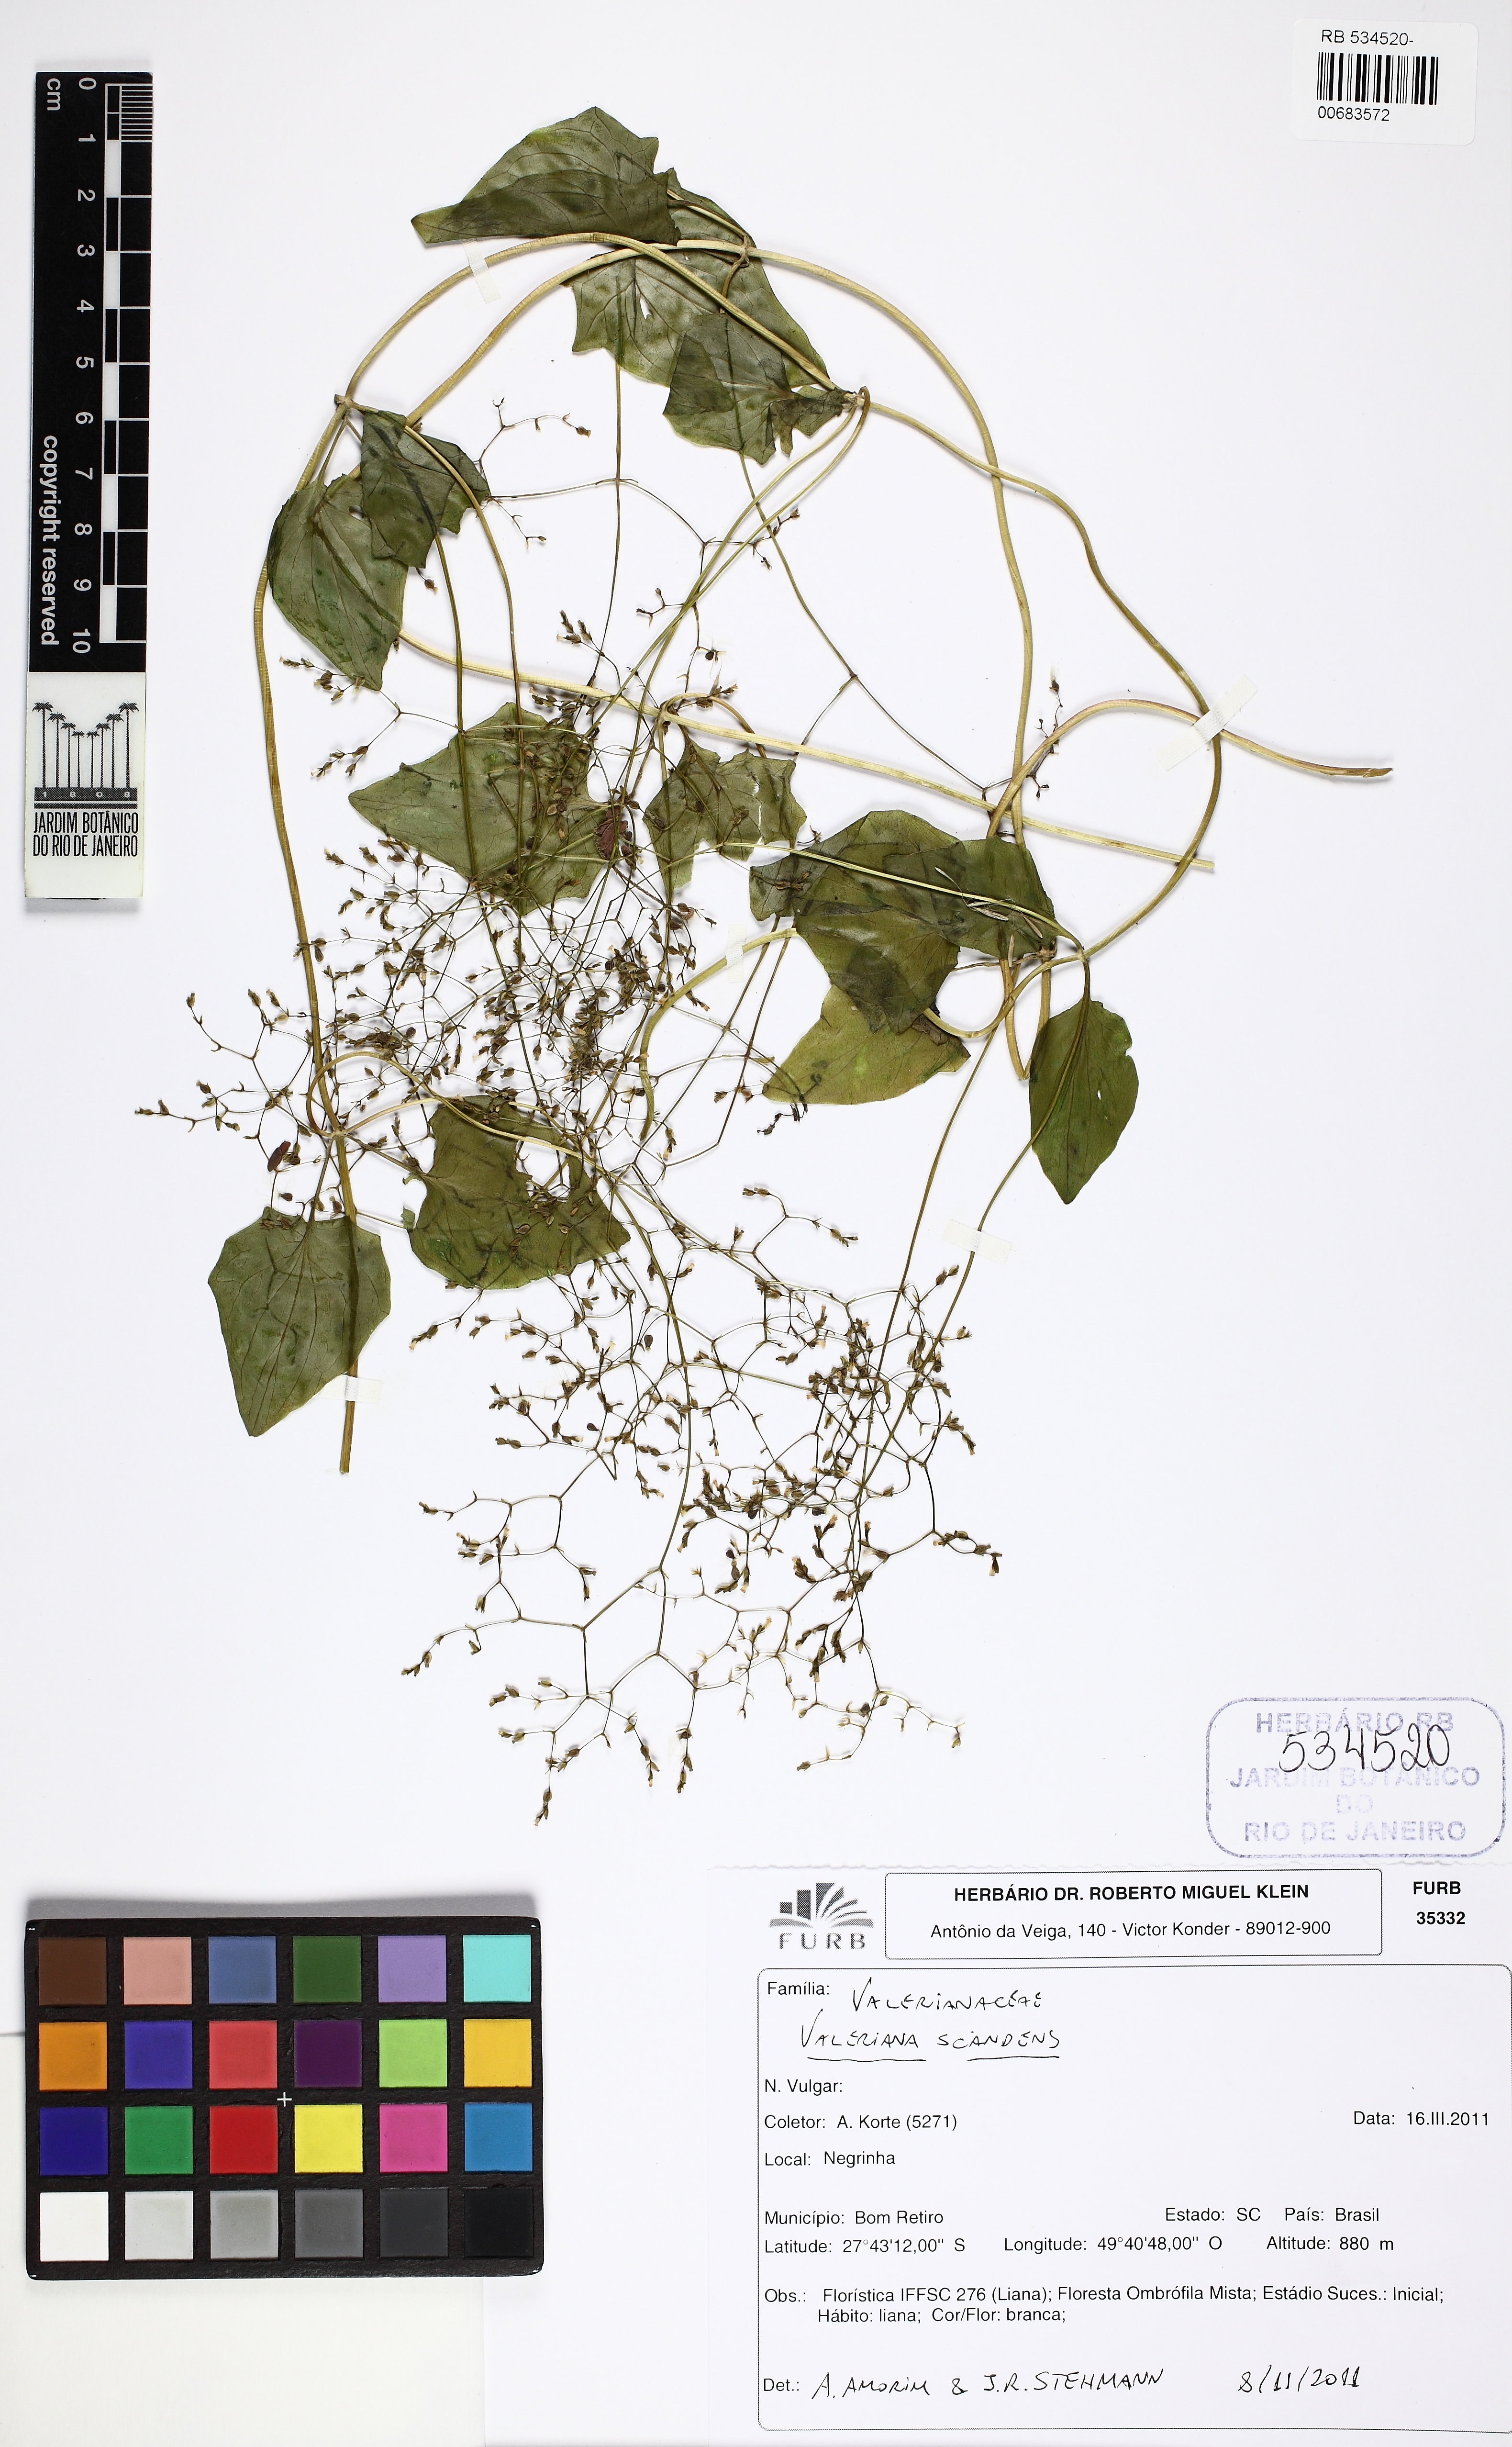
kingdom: Plantae
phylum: Tracheophyta
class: Magnoliopsida
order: Dipsacales
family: Caprifoliaceae
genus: Valeriana
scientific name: Valeriana scandens
